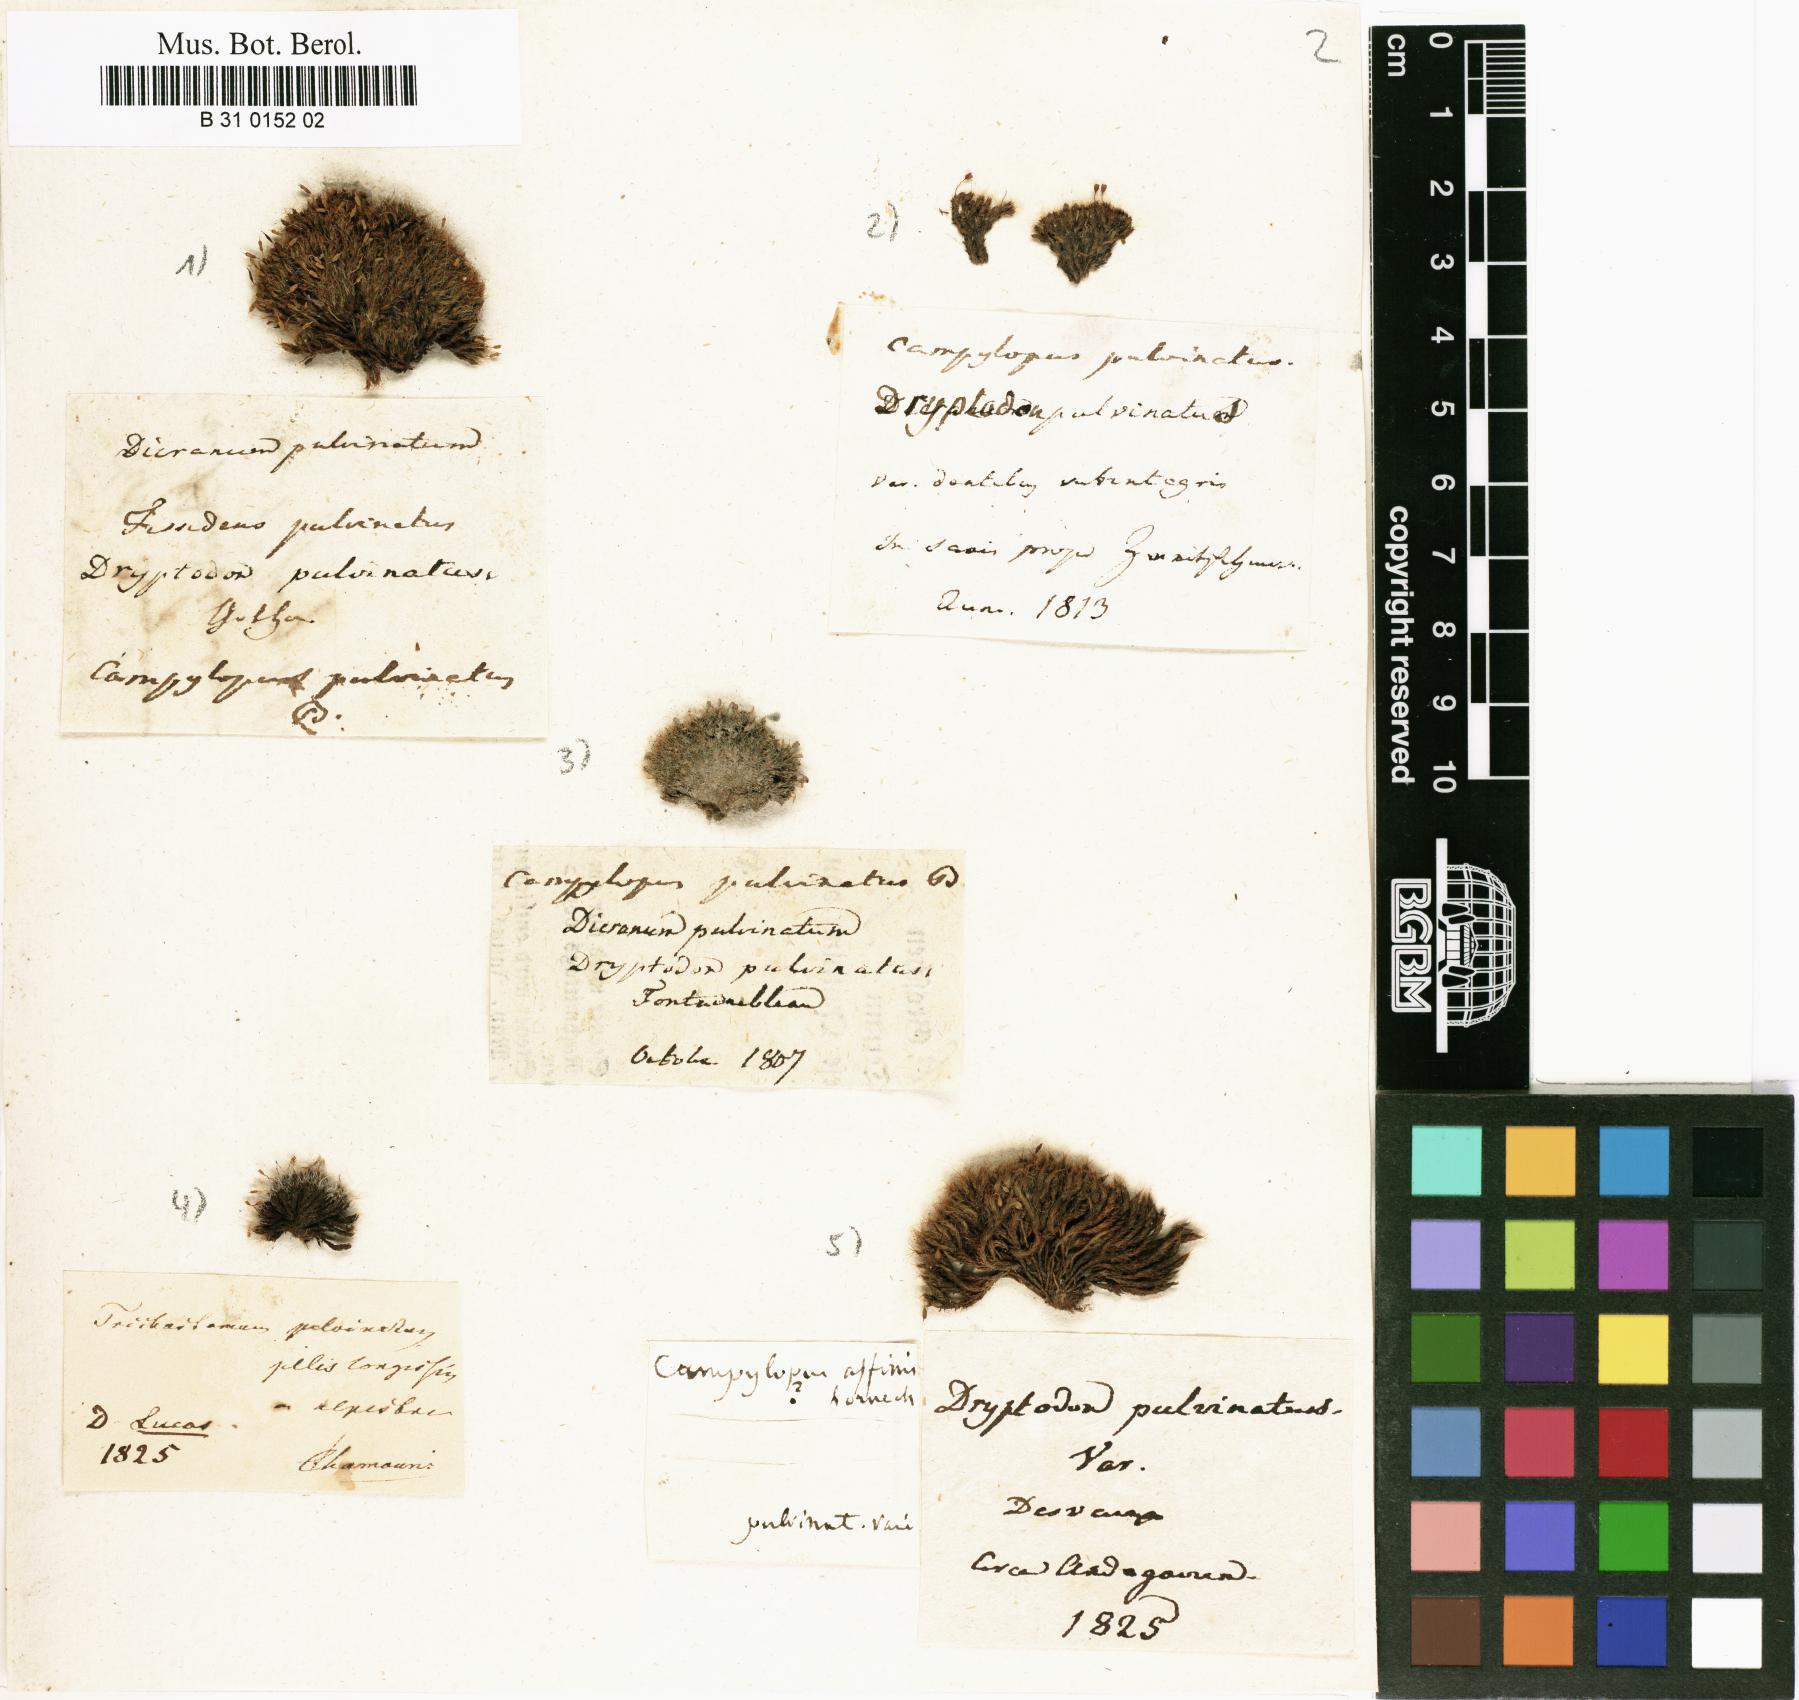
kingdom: Plantae
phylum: Bryophyta
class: Bryopsida
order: Grimmiales
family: Grimmiaceae
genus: Grimmia
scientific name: Grimmia pulvinata
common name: Grey-cushioned grimmia
